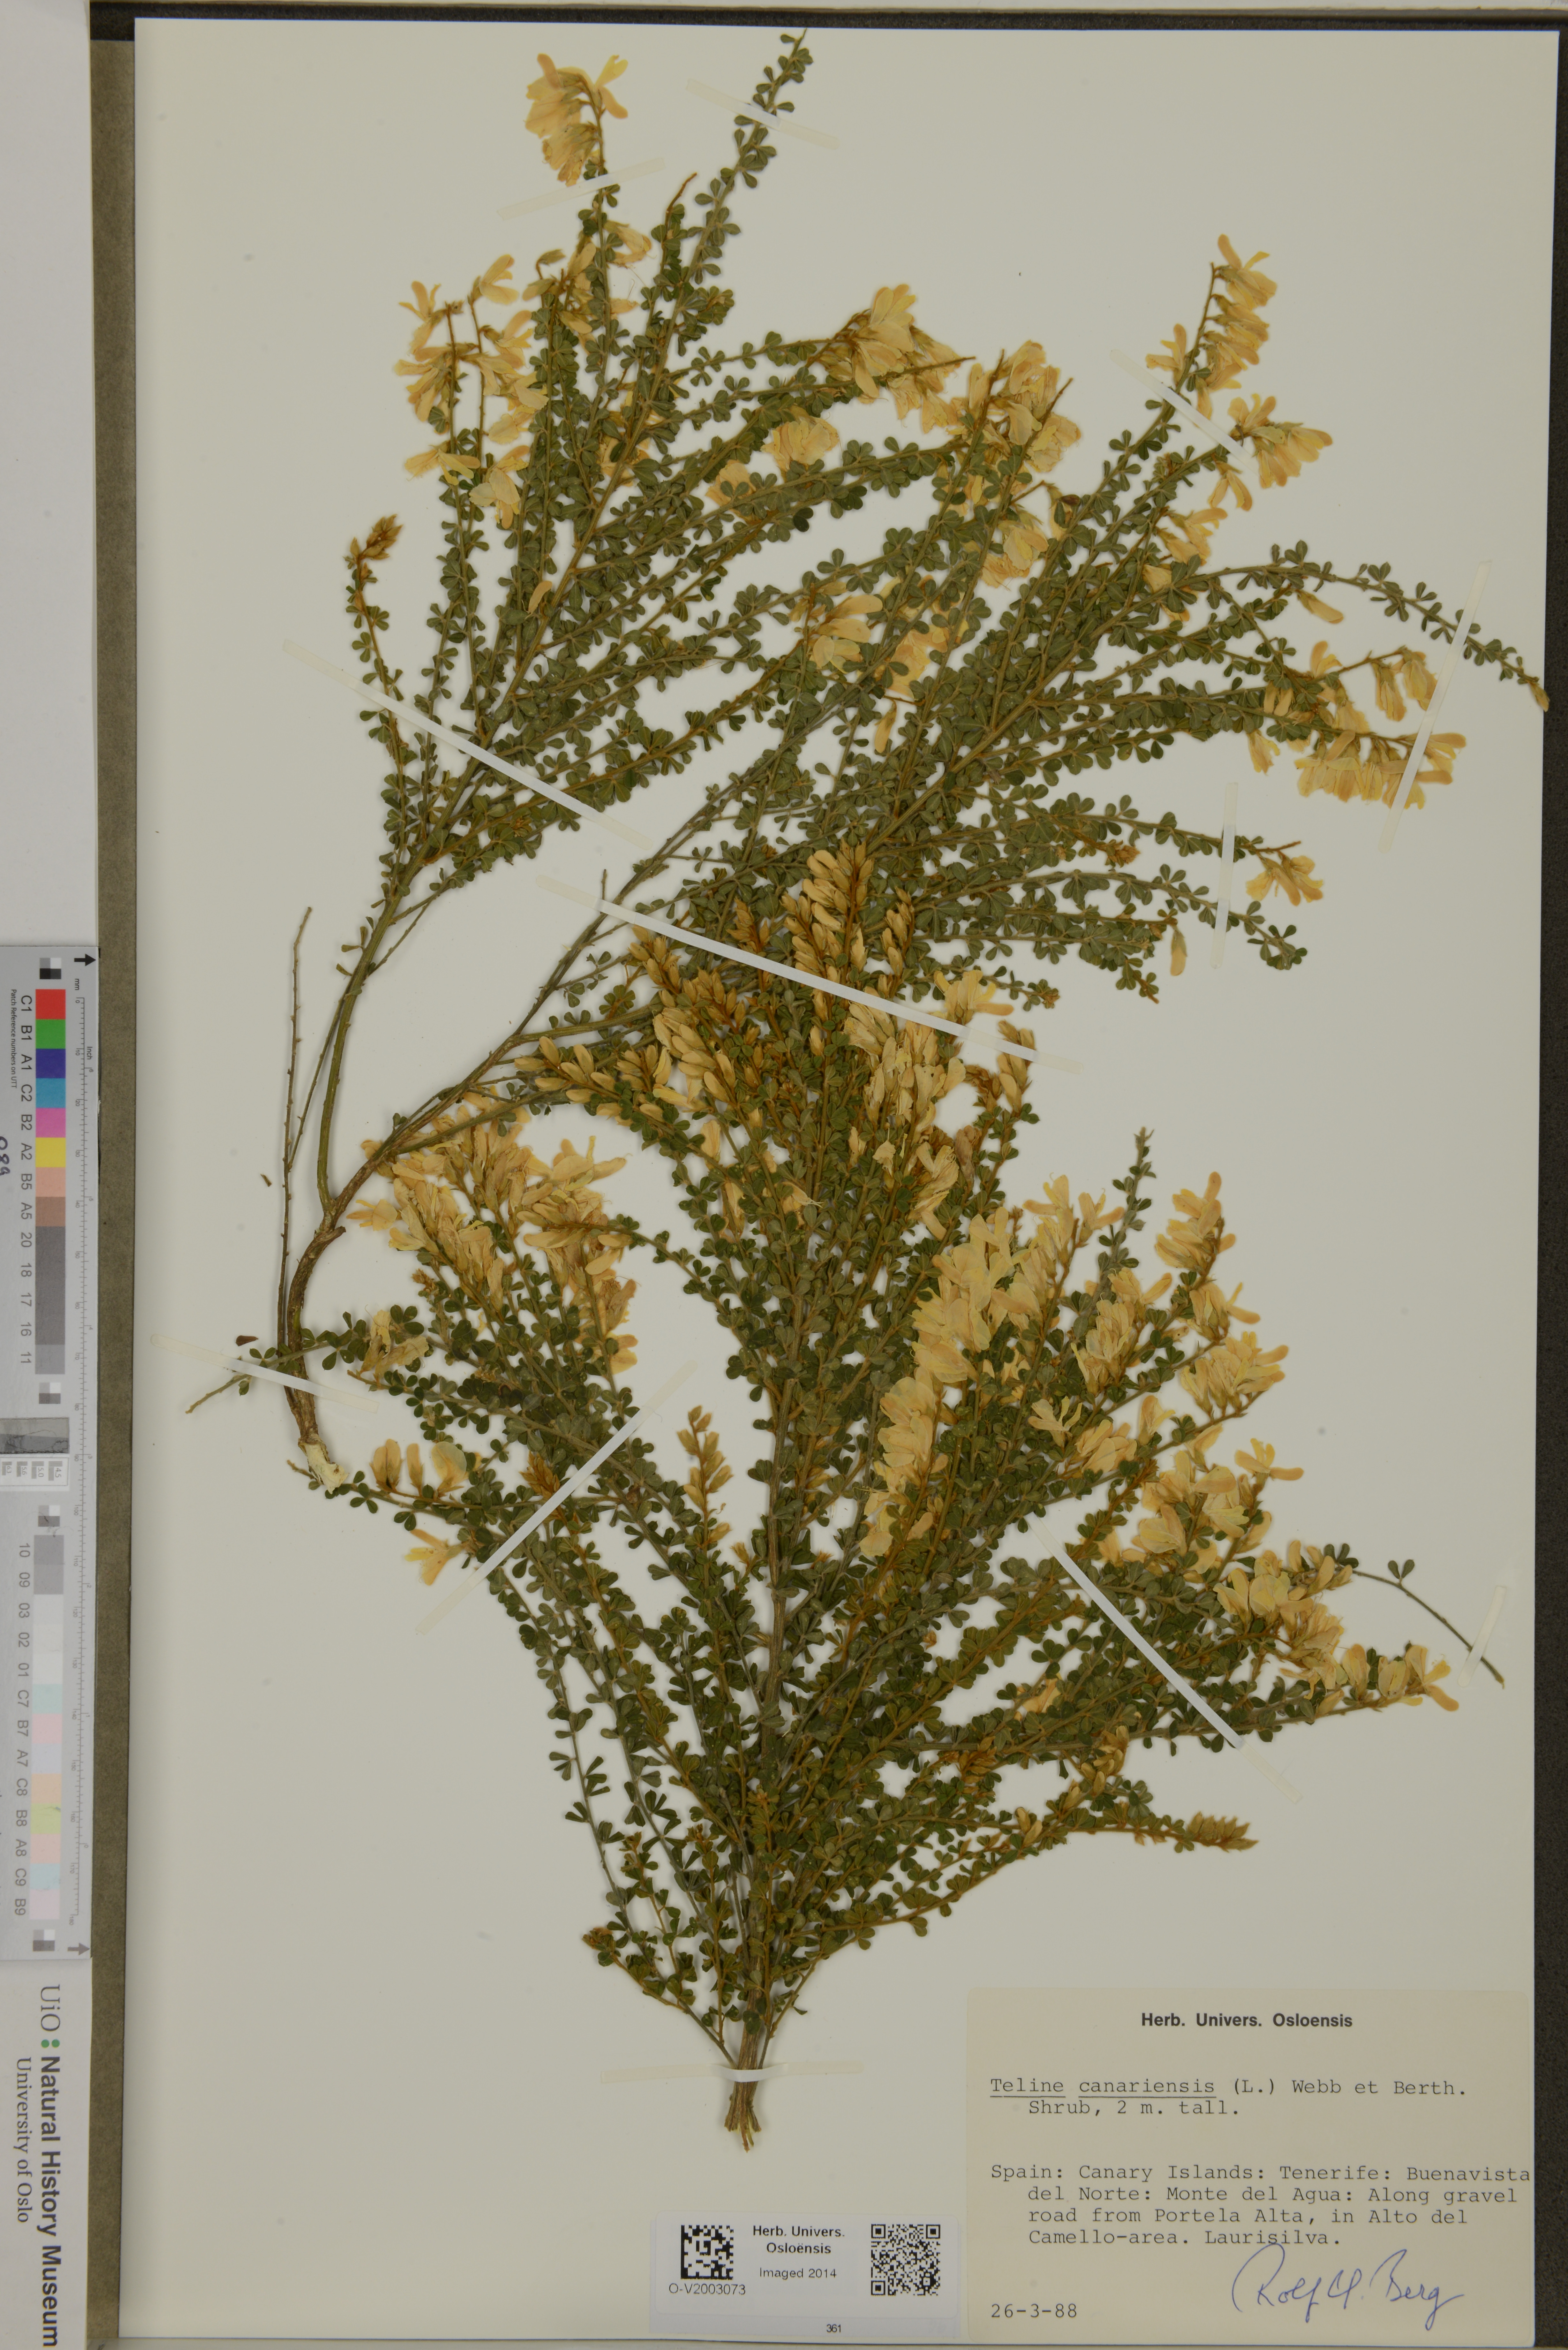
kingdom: Plantae
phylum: Tracheophyta
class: Magnoliopsida
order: Fabales
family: Fabaceae
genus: Genista
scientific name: Genista canariensis
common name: Canary broom
